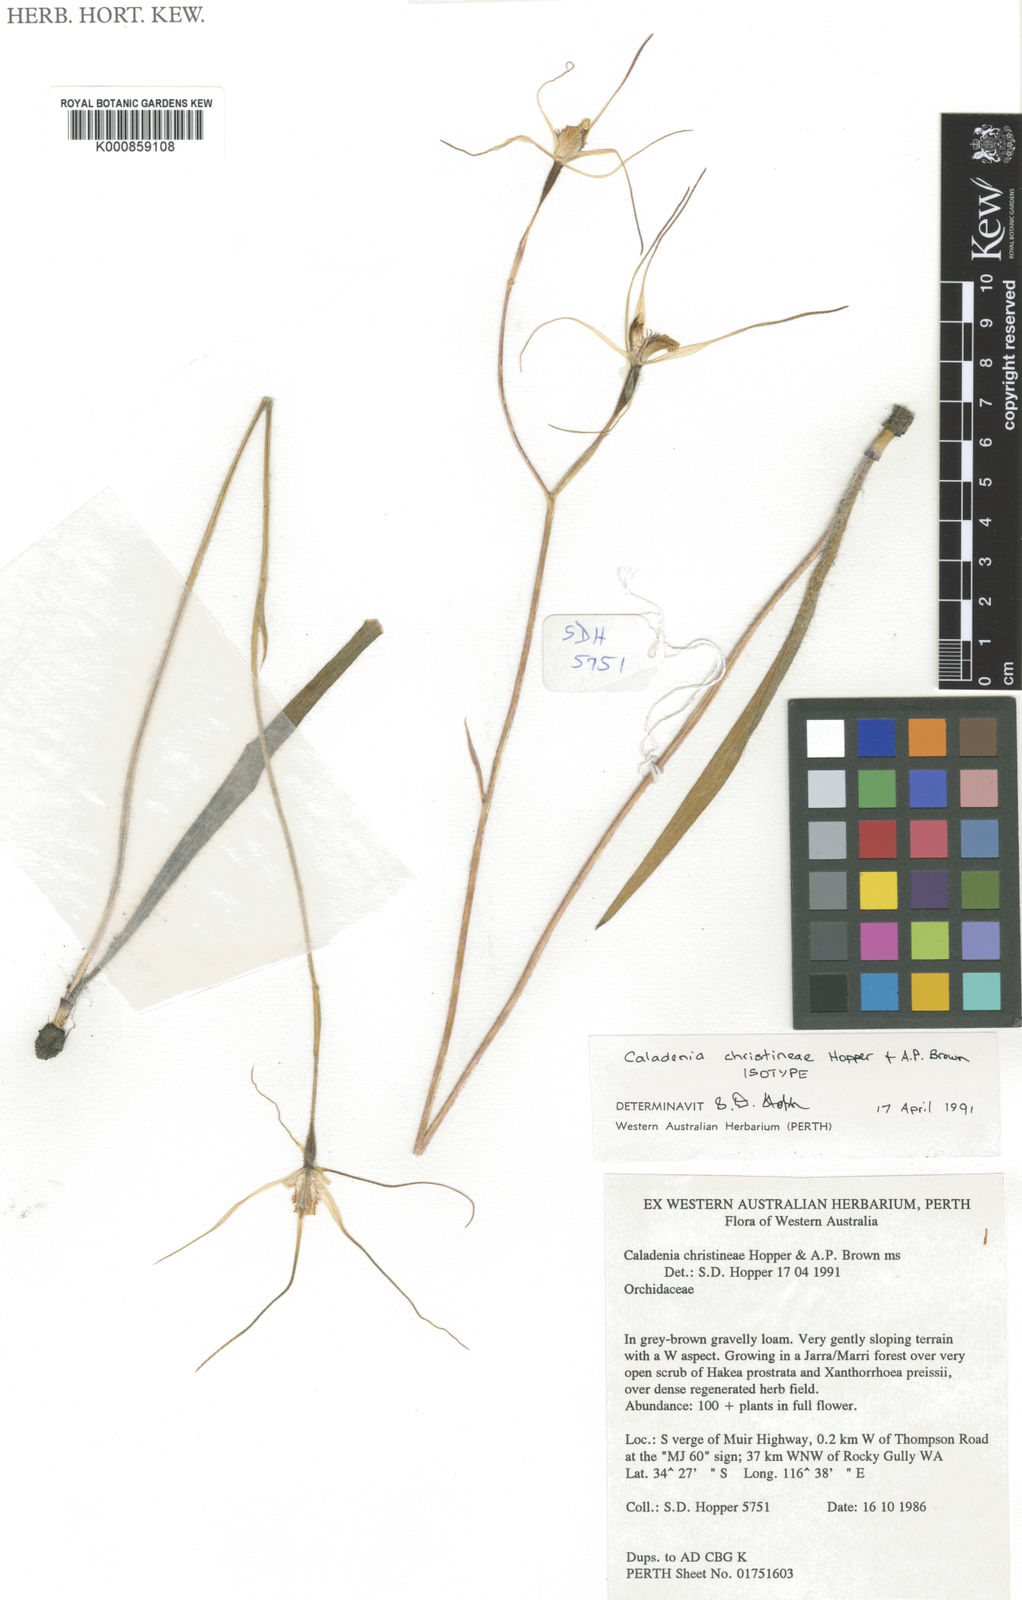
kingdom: Plantae
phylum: Tracheophyta
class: Liliopsida
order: Asparagales
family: Orchidaceae
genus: Caladenia
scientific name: Caladenia christineae
